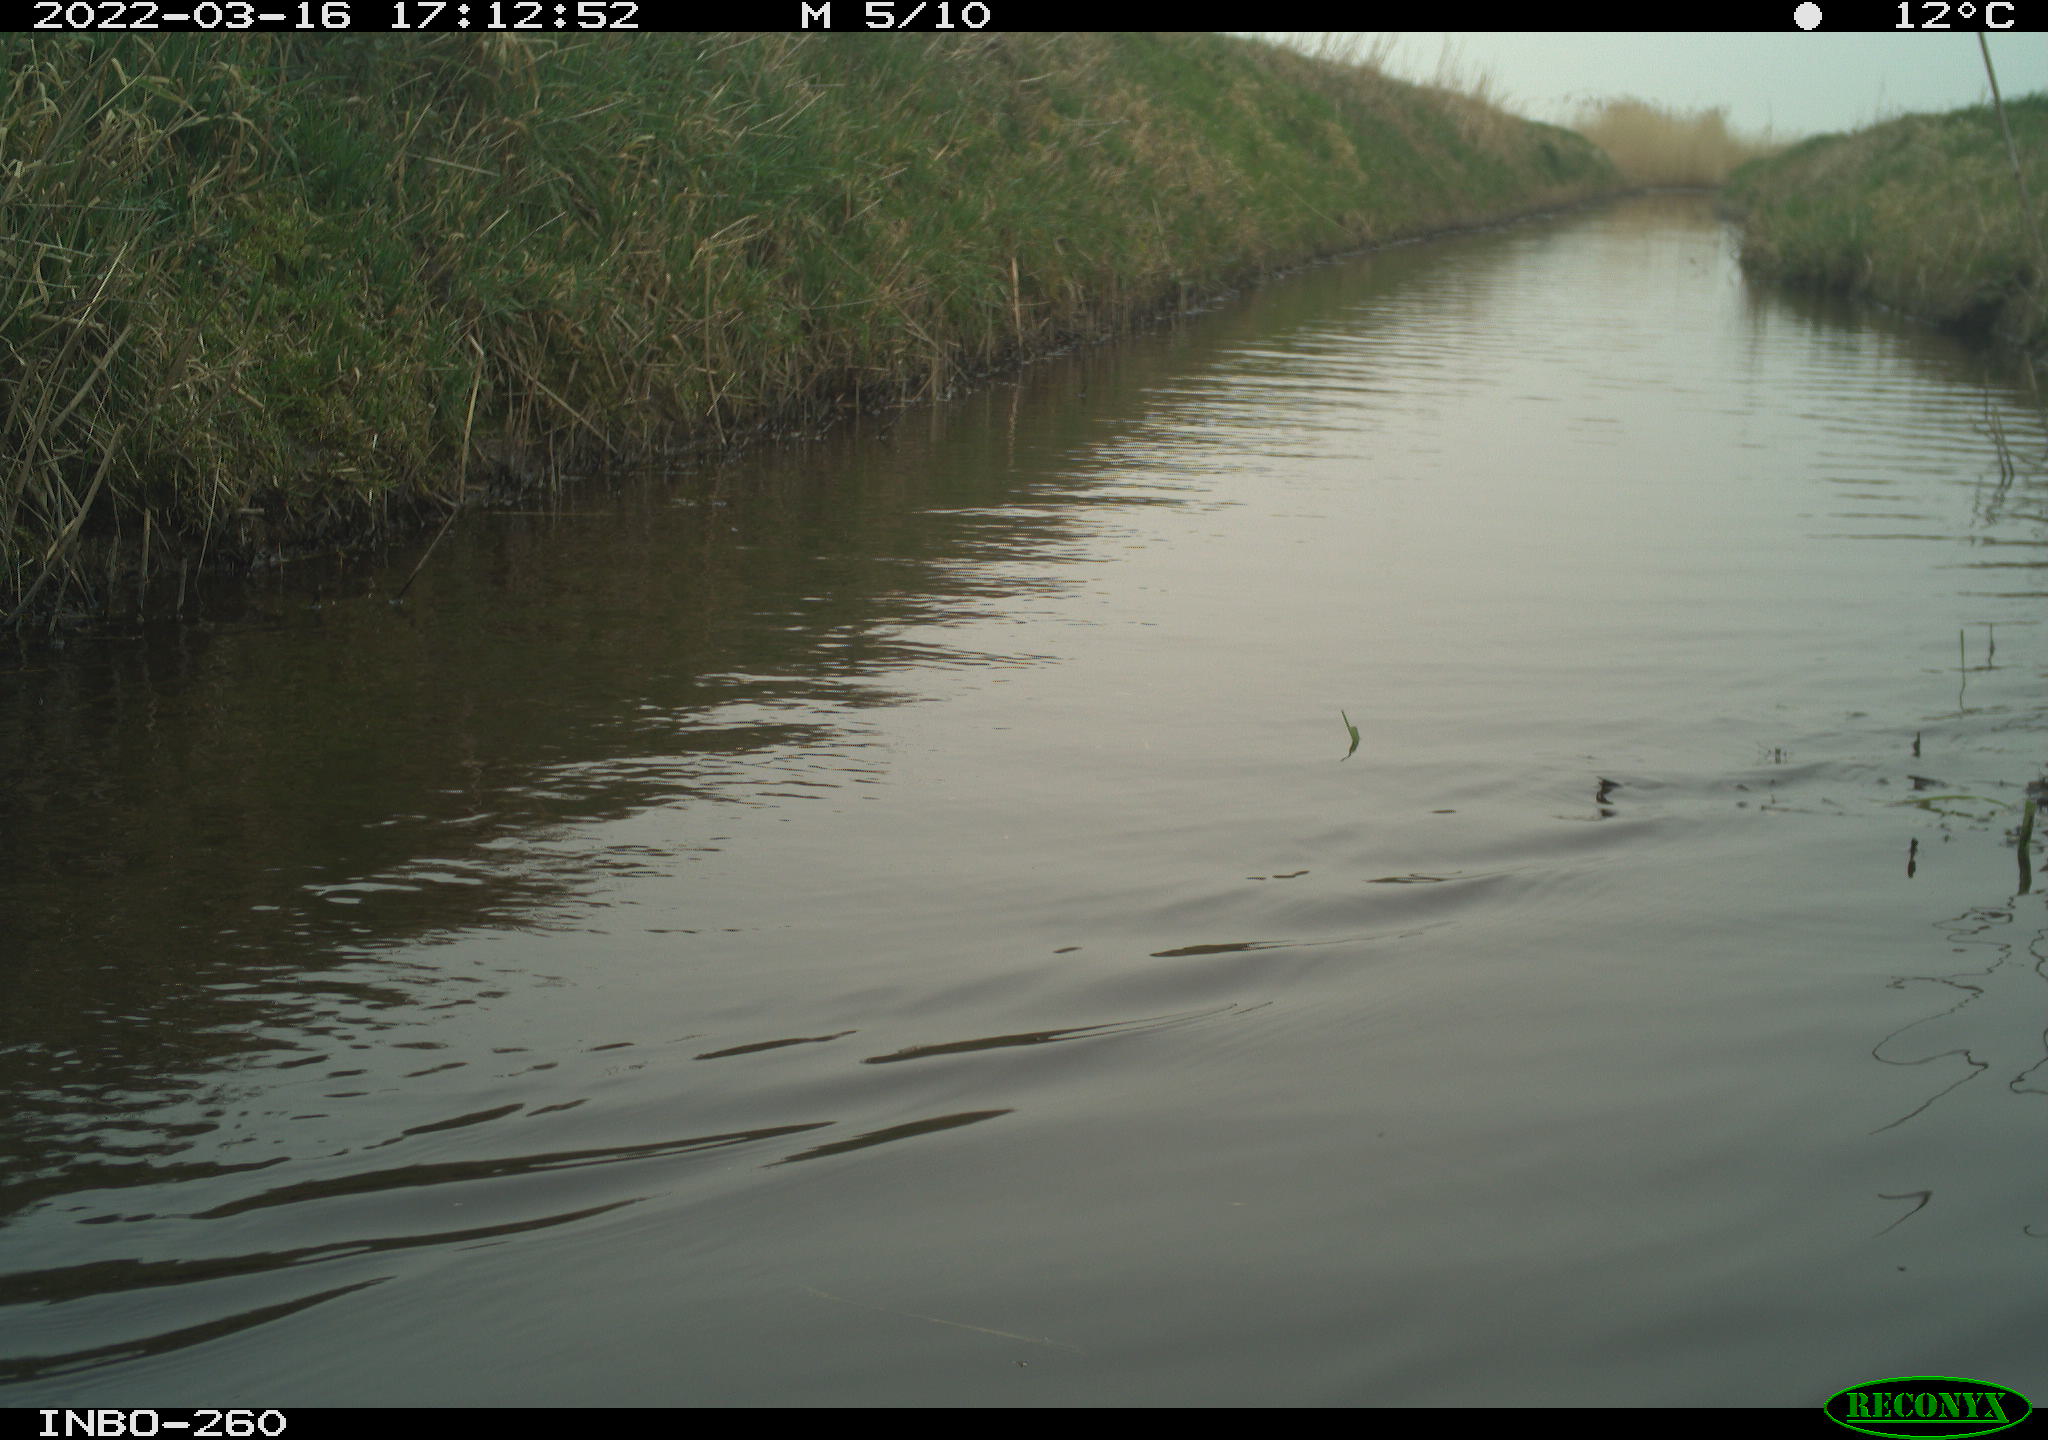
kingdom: Animalia
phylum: Chordata
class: Aves
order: Gruiformes
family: Rallidae
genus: Fulica
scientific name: Fulica atra
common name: Eurasian coot
